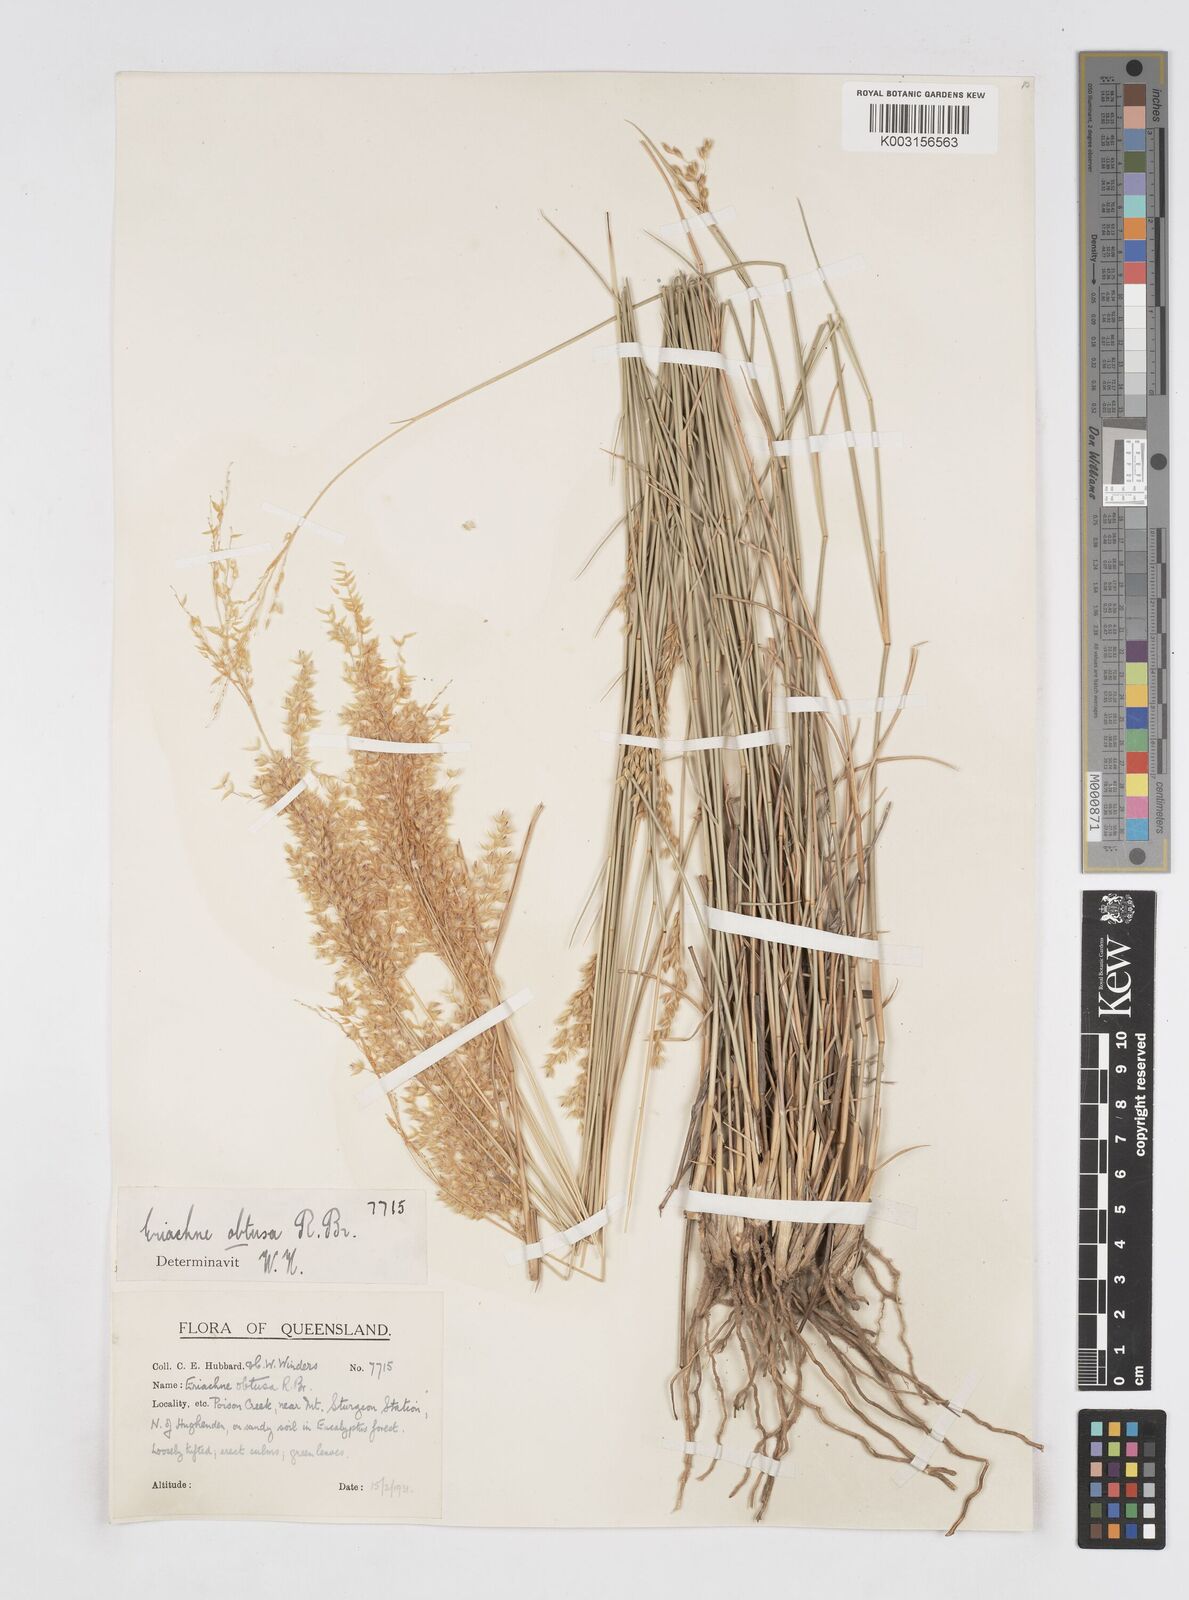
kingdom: Plantae
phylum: Tracheophyta
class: Liliopsida
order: Poales
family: Poaceae
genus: Eriachne
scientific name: Eriachne obtusa
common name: Northern wanderrie grass
